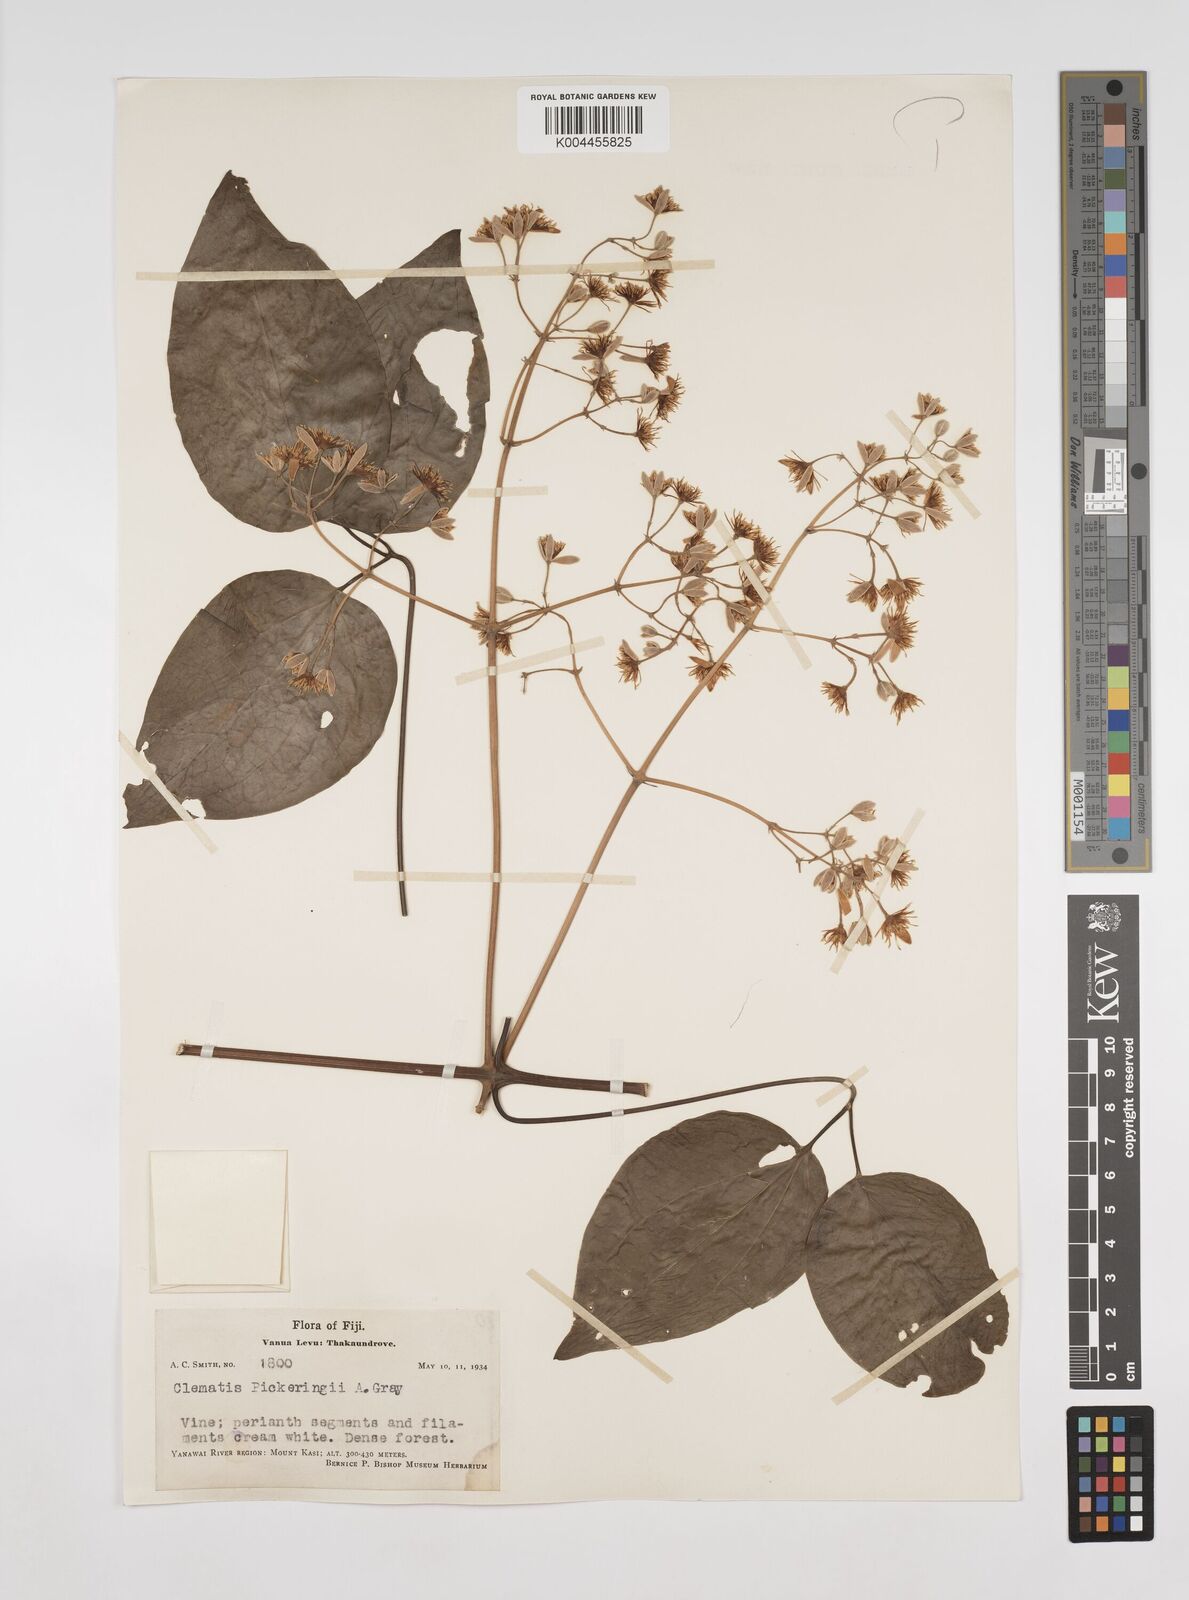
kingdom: Plantae
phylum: Tracheophyta
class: Magnoliopsida
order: Ranunculales
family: Ranunculaceae
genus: Clematis
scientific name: Clematis pickeringii
